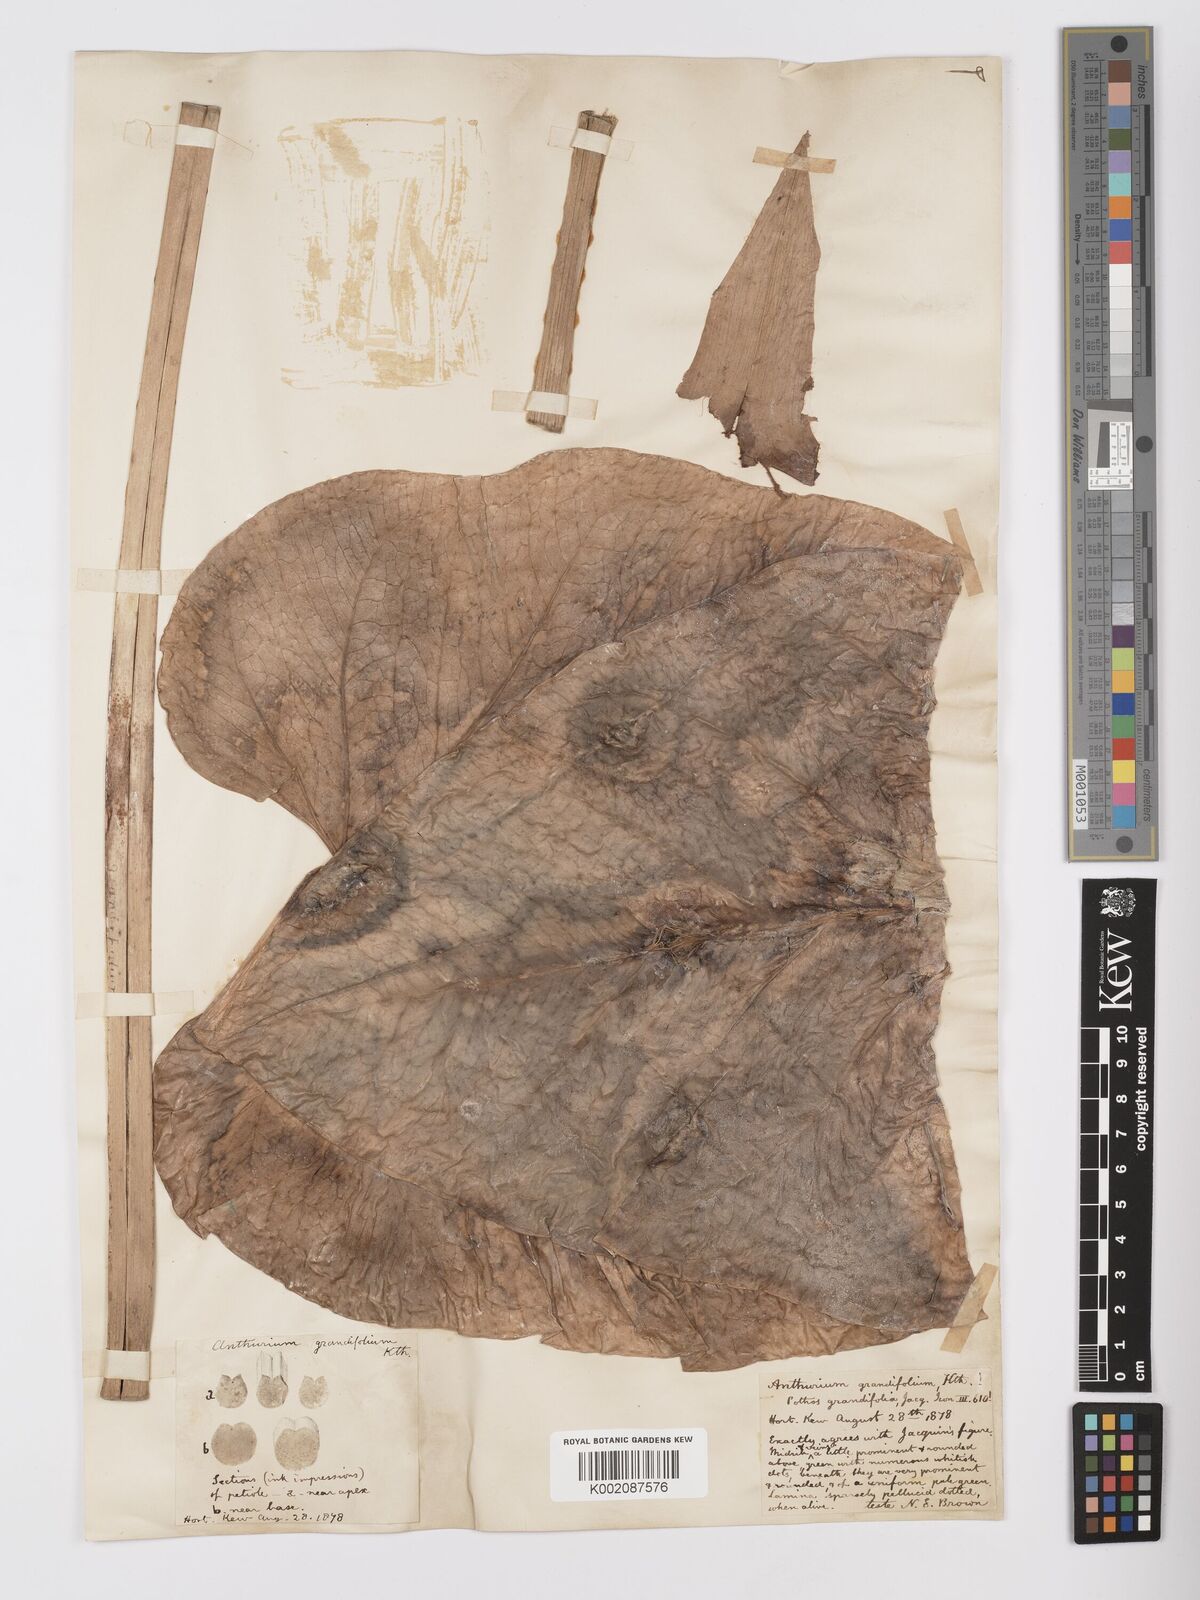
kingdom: Plantae
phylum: Tracheophyta
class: Liliopsida
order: Alismatales
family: Araceae
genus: Anthurium
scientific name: Anthurium grandifolium
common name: Monkey tail
